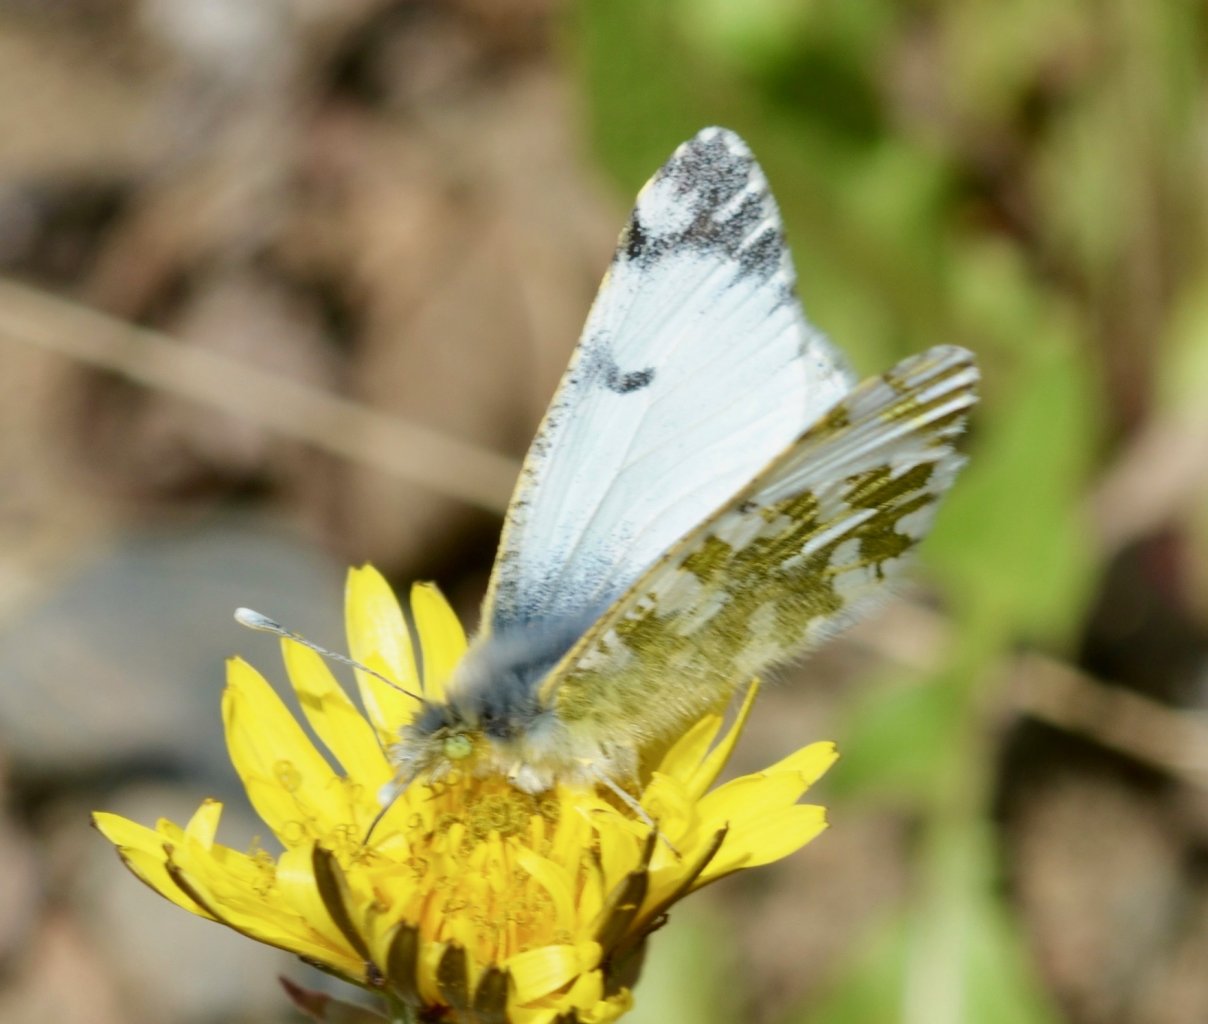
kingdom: Animalia
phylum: Arthropoda
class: Insecta
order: Lepidoptera
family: Pieridae
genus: Euchloe
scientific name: Euchloe ausonides
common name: Large Marble
